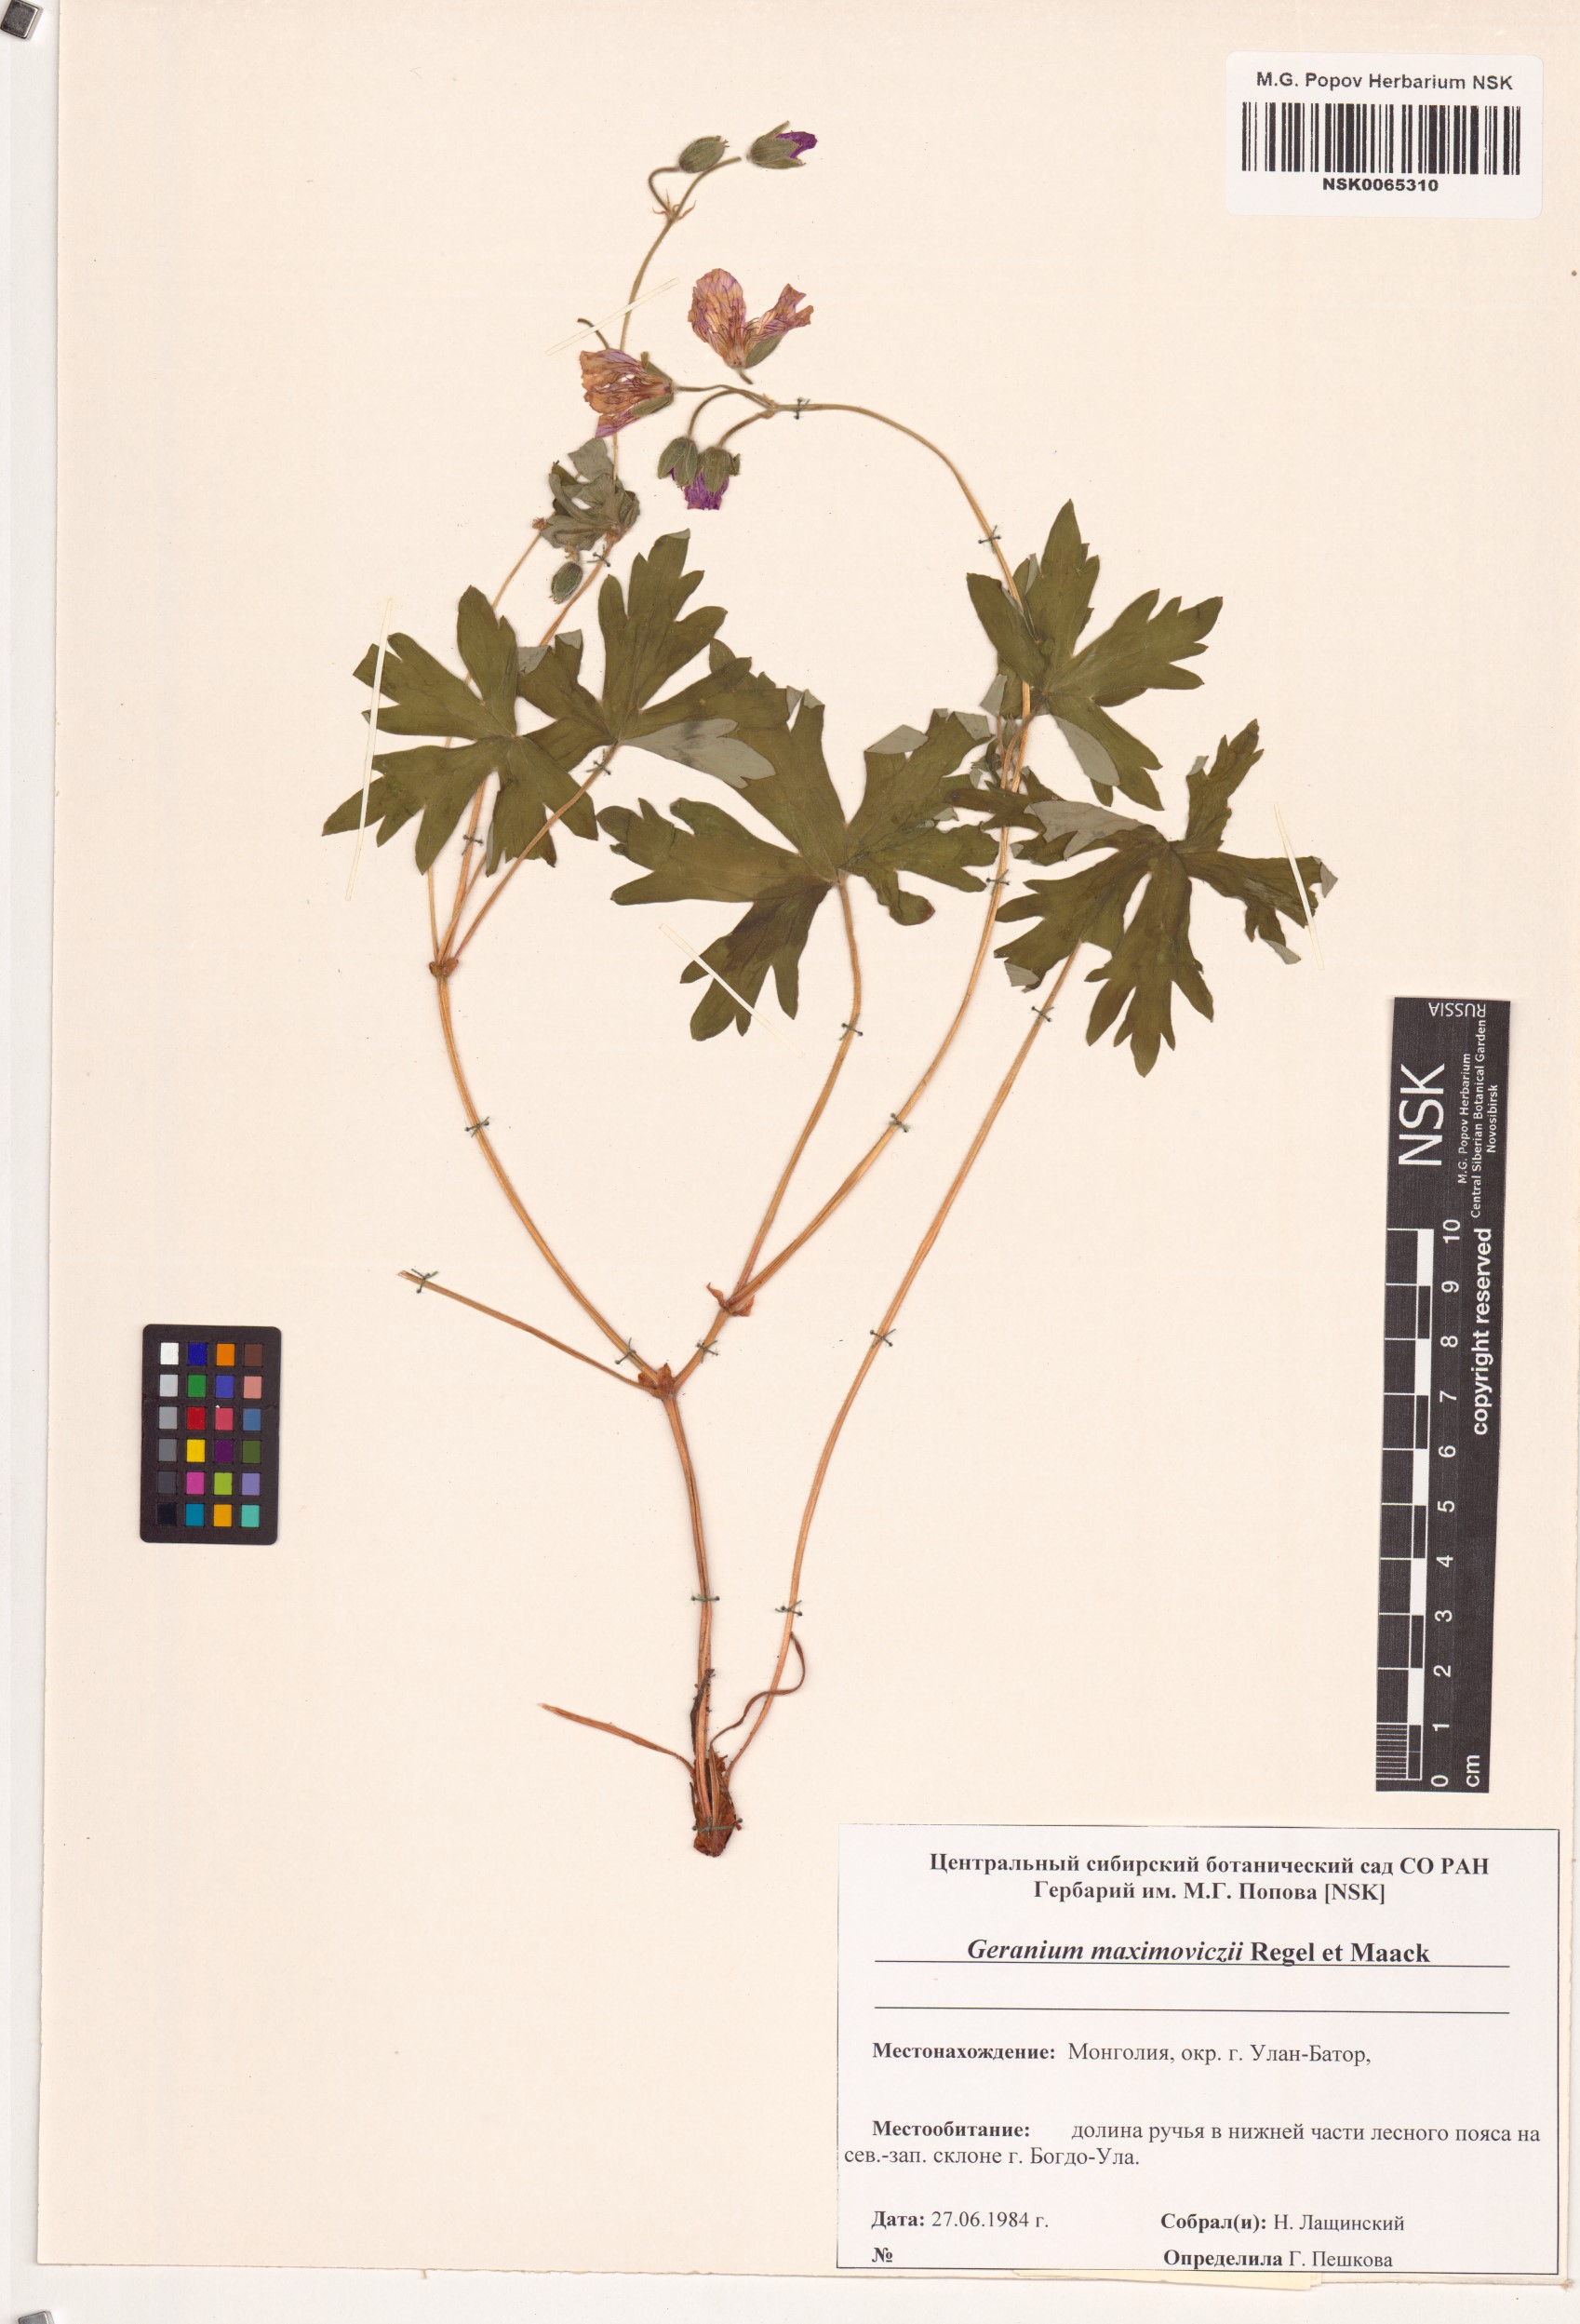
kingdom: Plantae
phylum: Tracheophyta
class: Magnoliopsida
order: Geraniales
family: Geraniaceae
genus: Geranium
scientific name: Geranium maximowiczii
